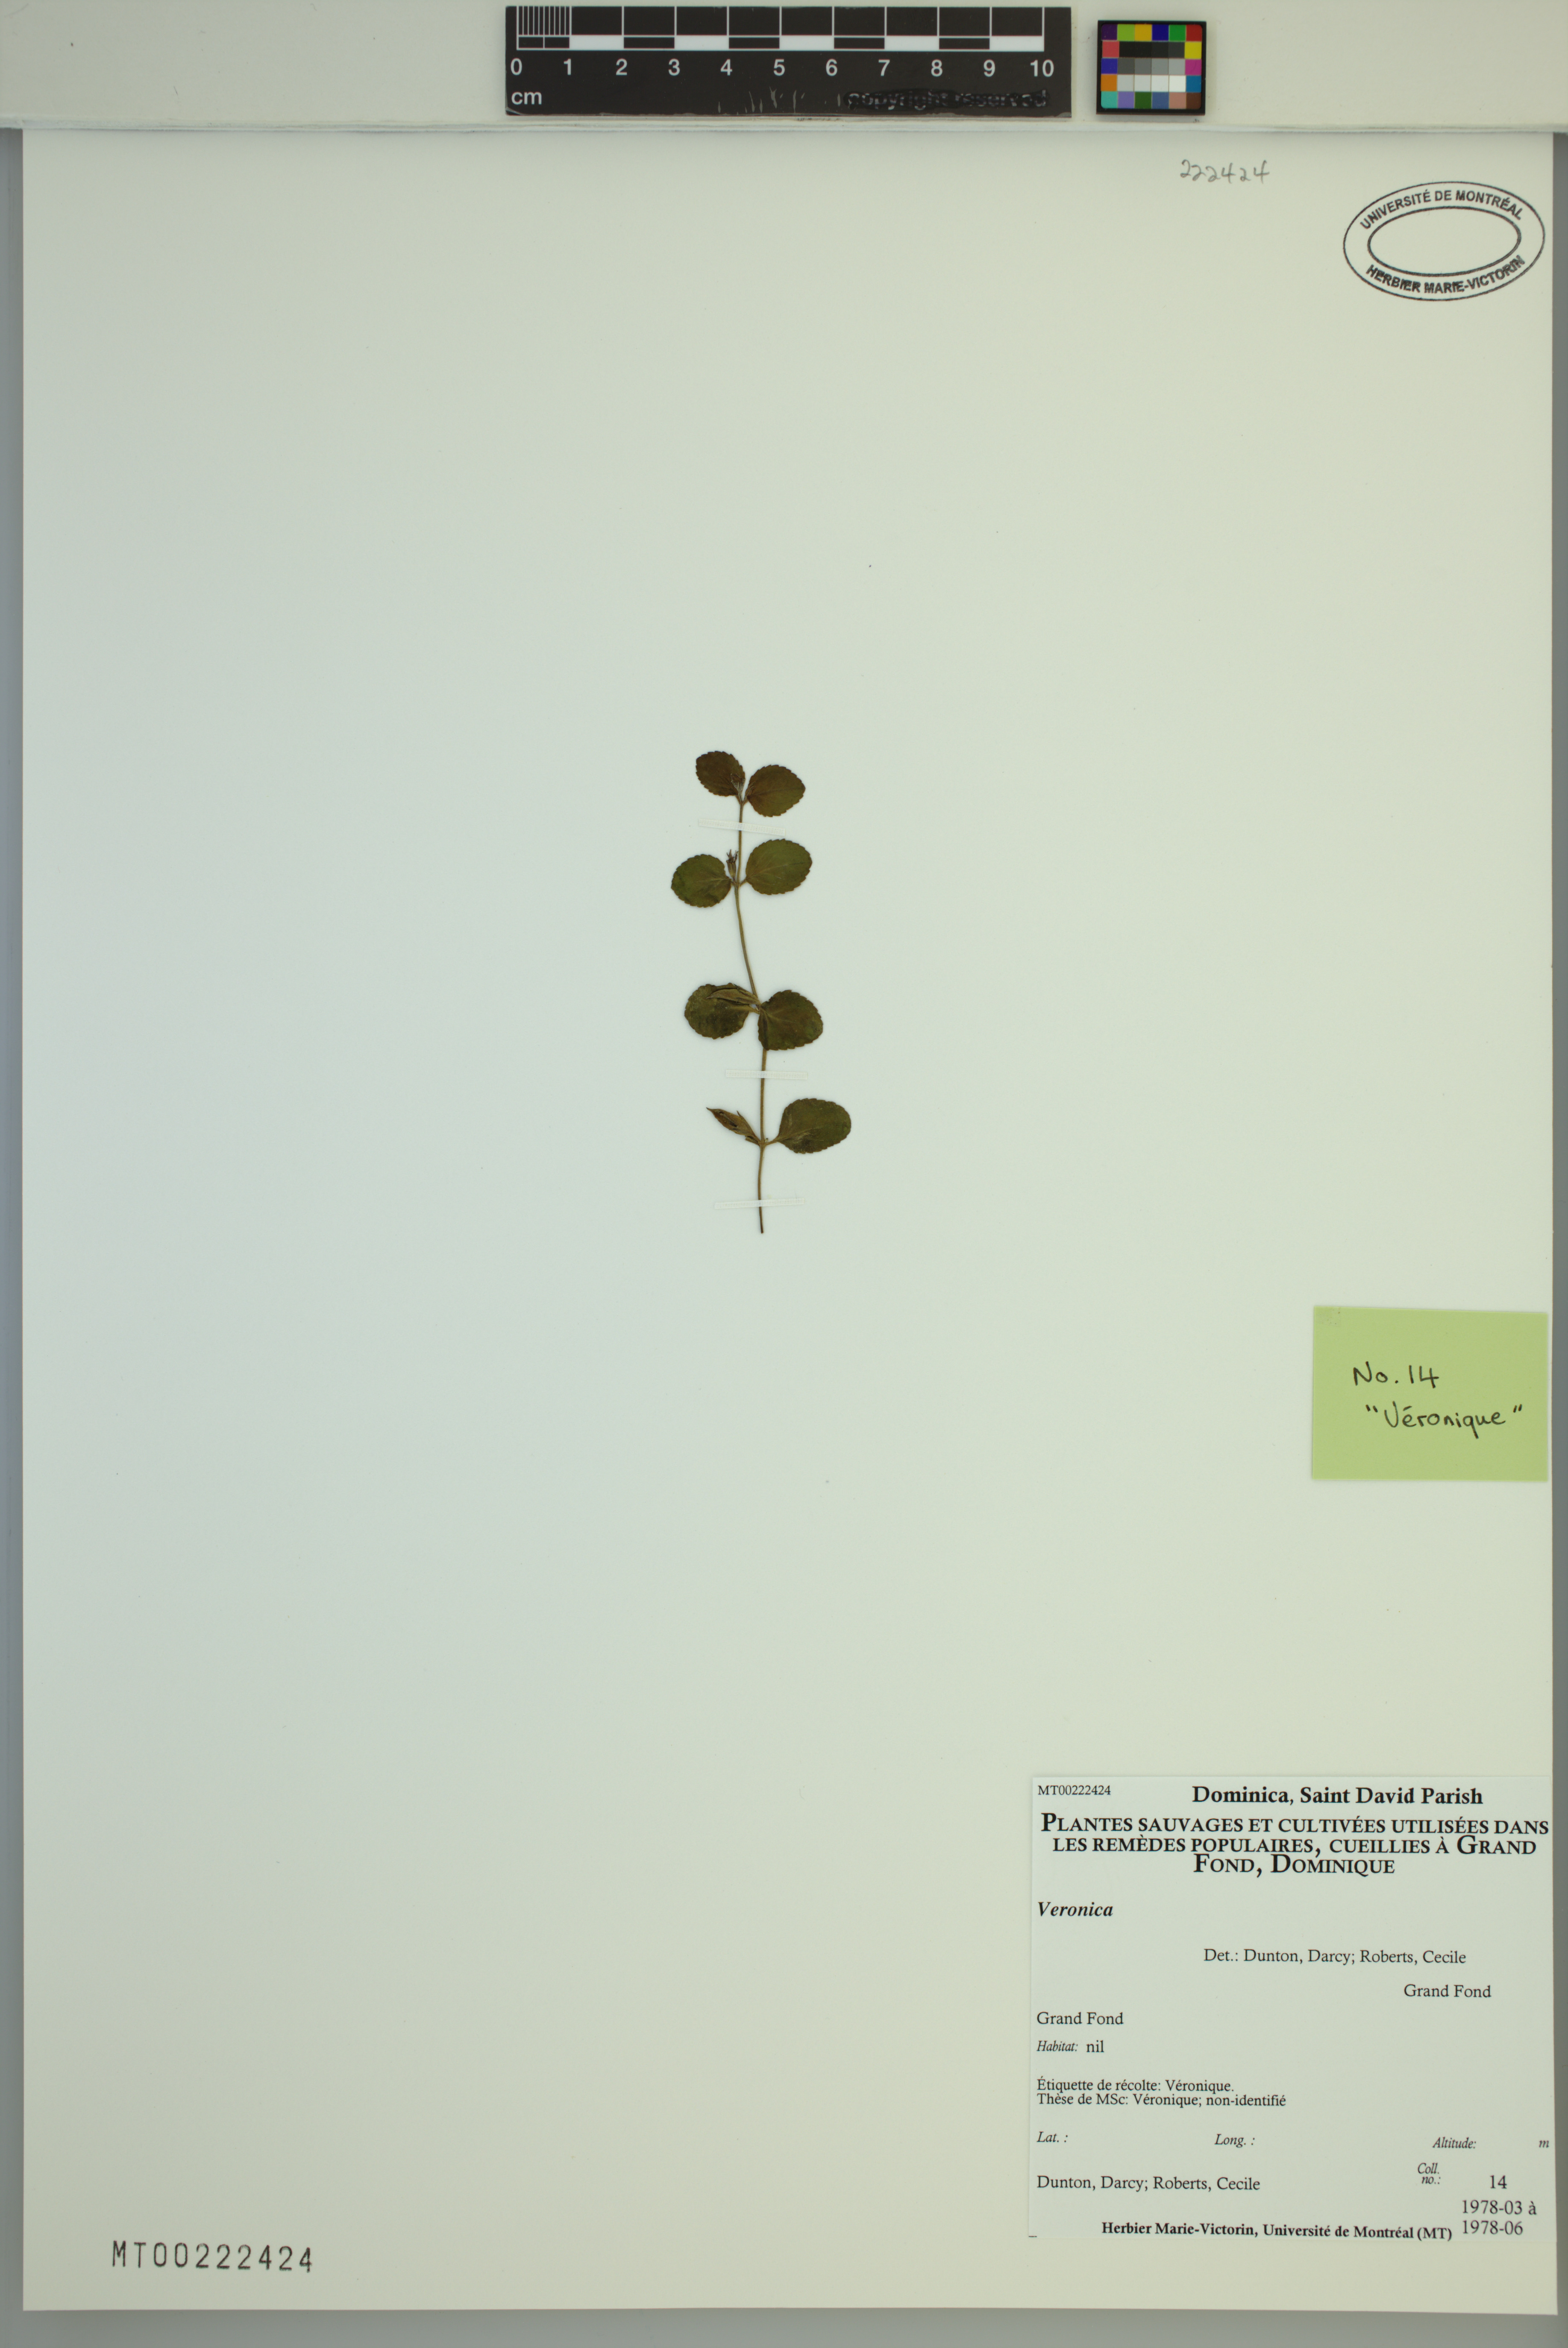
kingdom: Plantae
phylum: Tracheophyta
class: Magnoliopsida
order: Lamiales
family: Plantaginaceae
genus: Veronica
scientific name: Veronica
